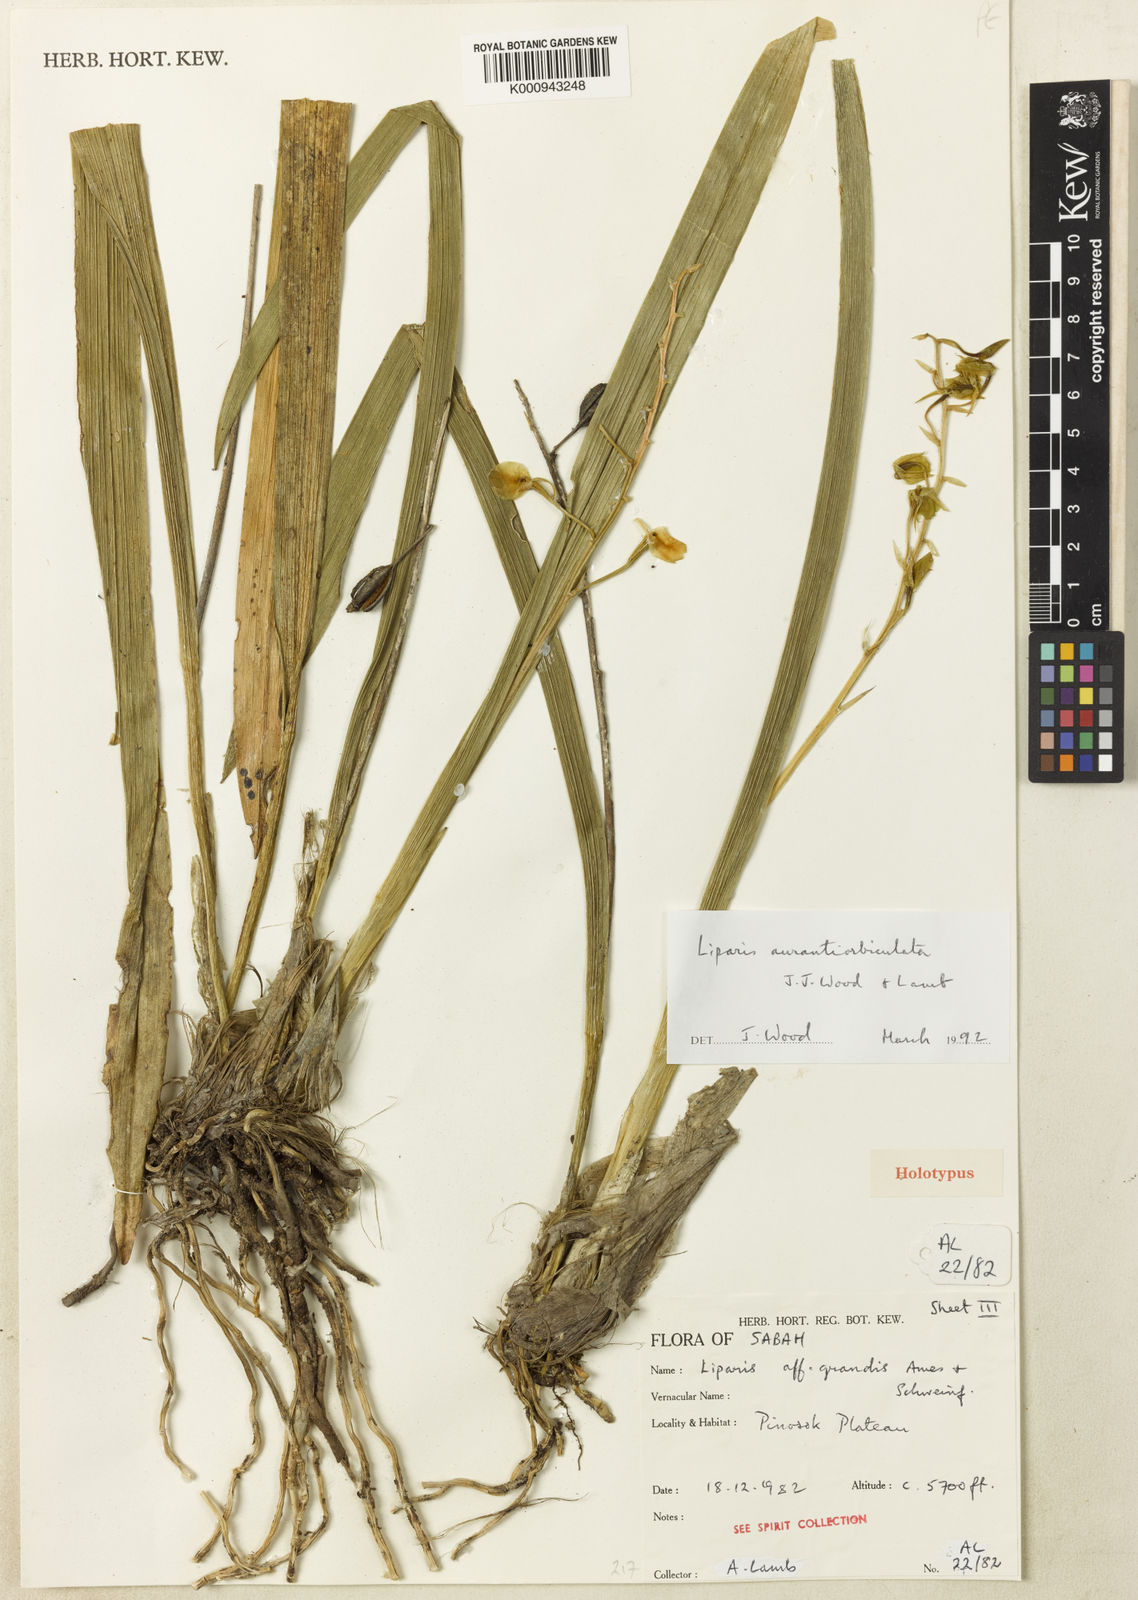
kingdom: Plantae
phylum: Tracheophyta
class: Liliopsida
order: Asparagales
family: Orchidaceae
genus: Liparis
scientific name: Liparis aurantiorbiculata
